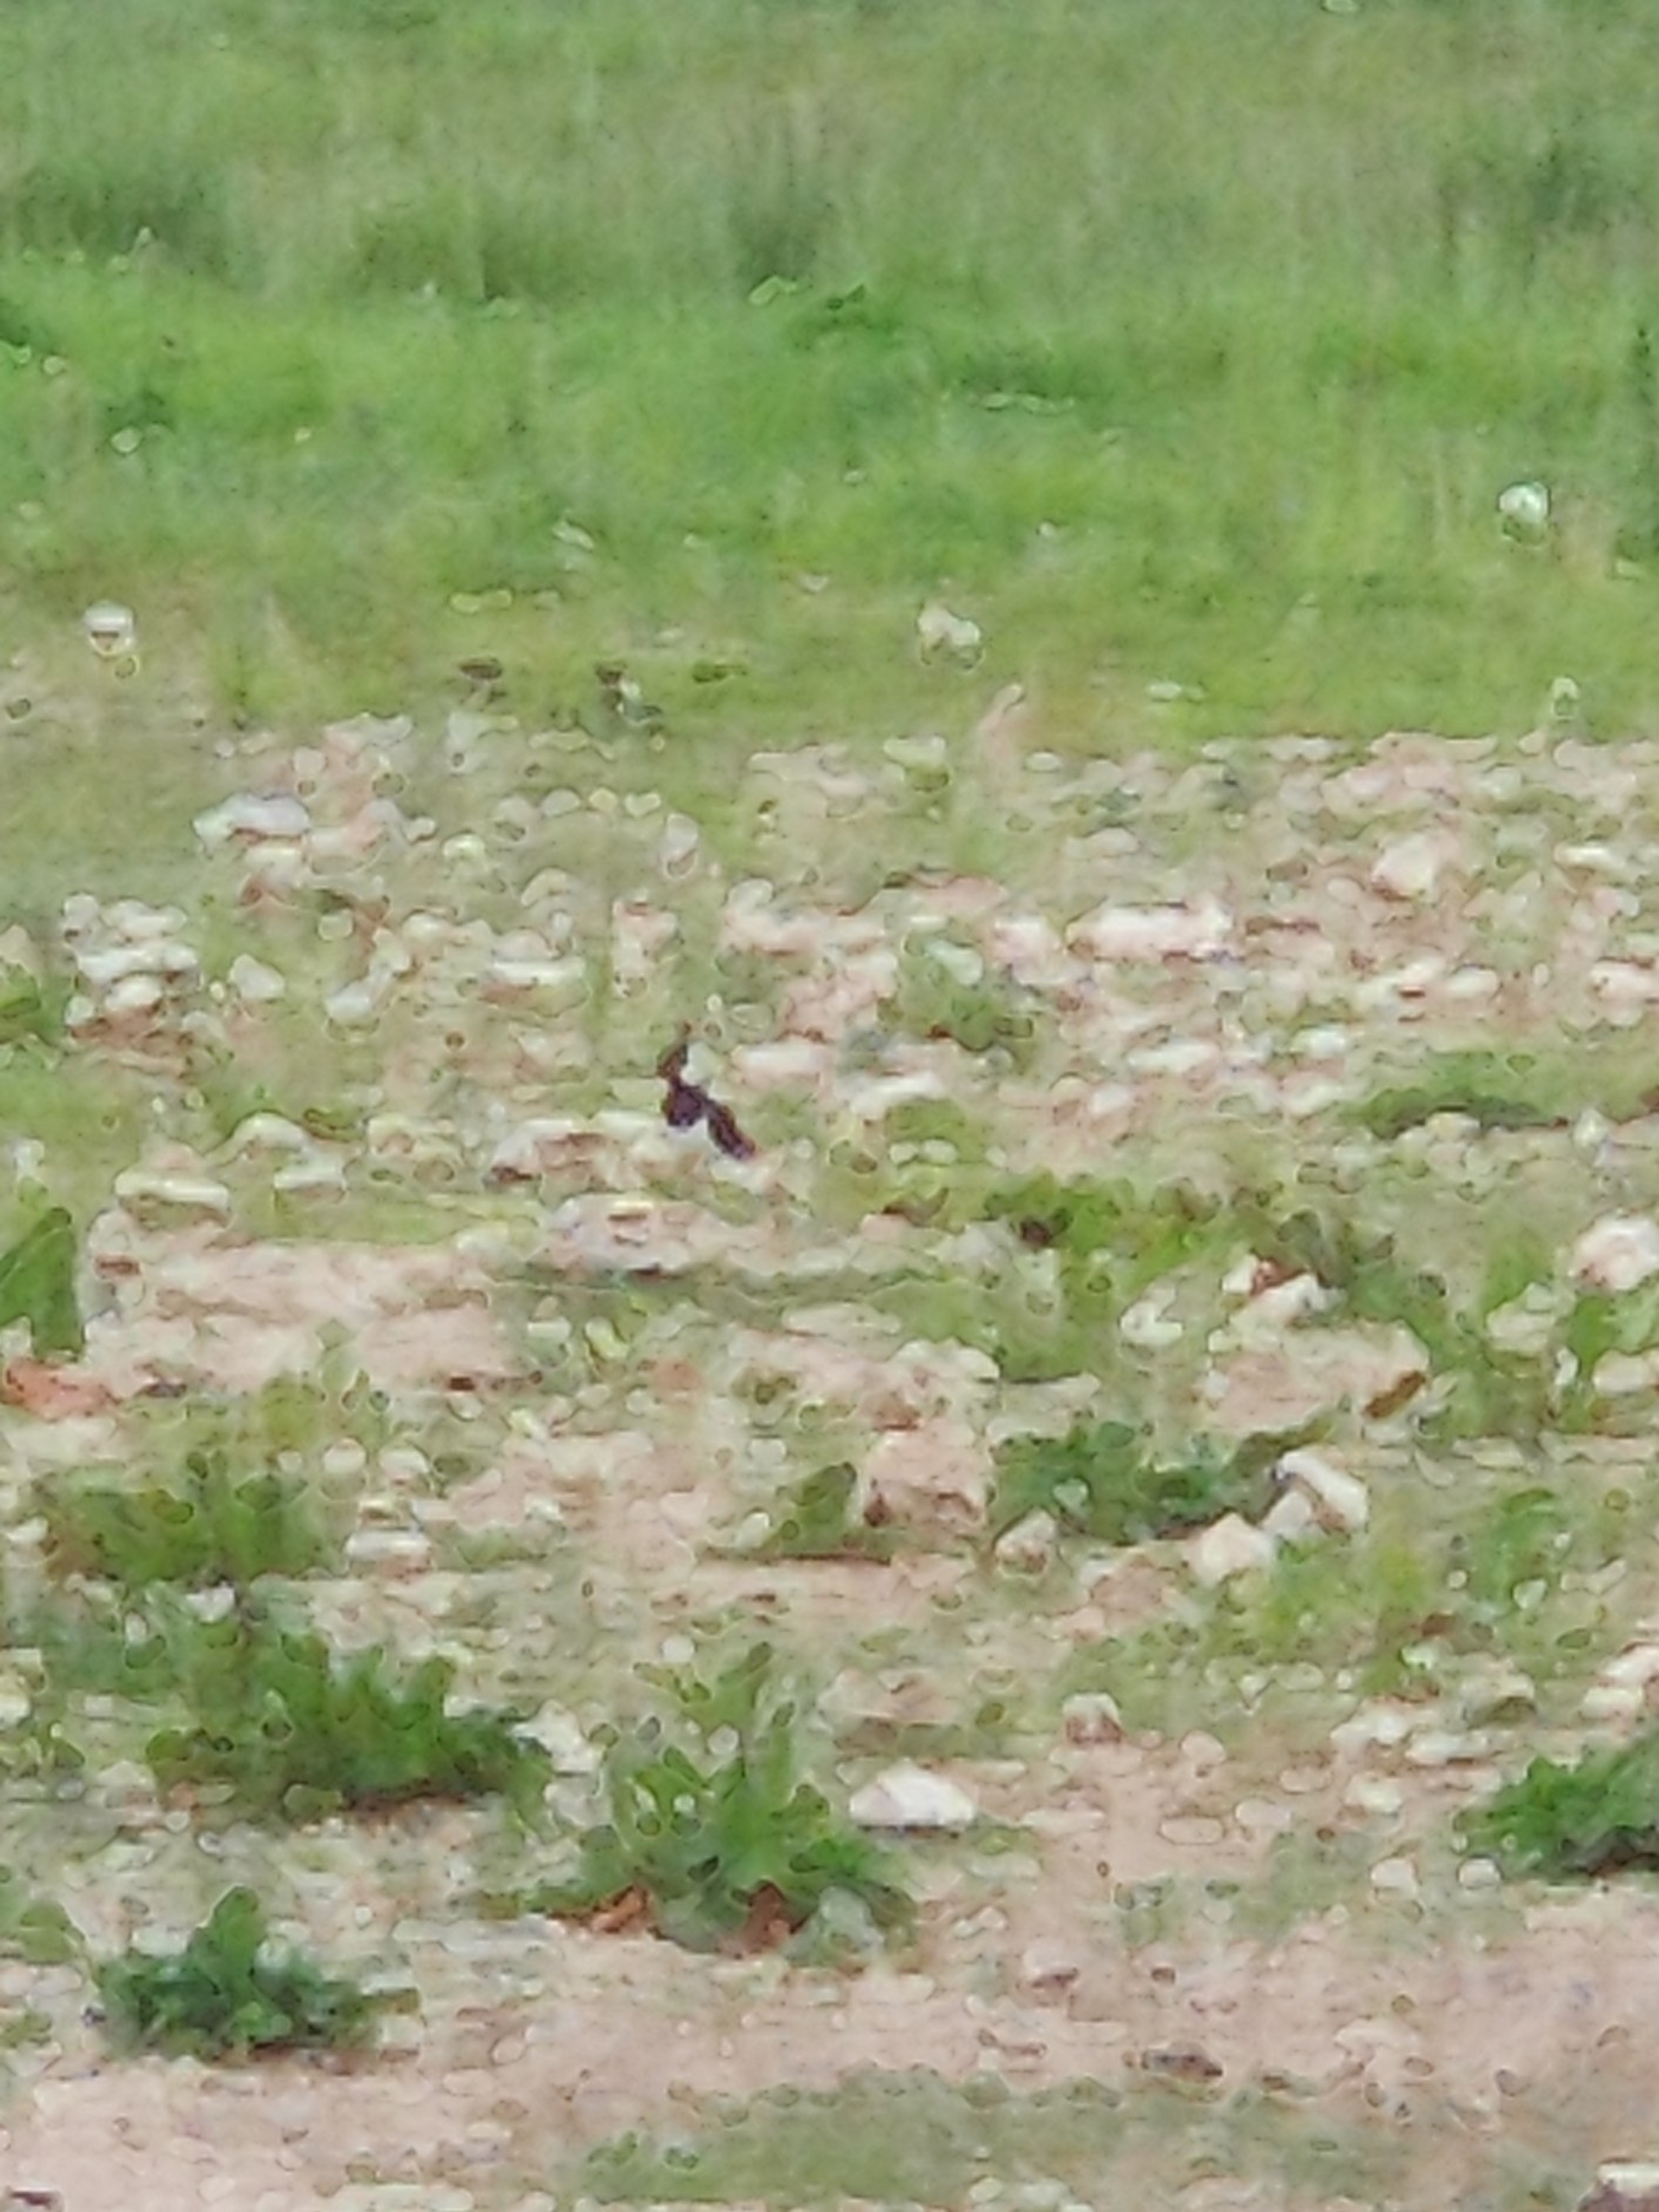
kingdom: Animalia
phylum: Chordata
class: Aves
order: Charadriiformes
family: Charadriidae
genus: Vanellus
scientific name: Vanellus vanellus
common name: Vibe
